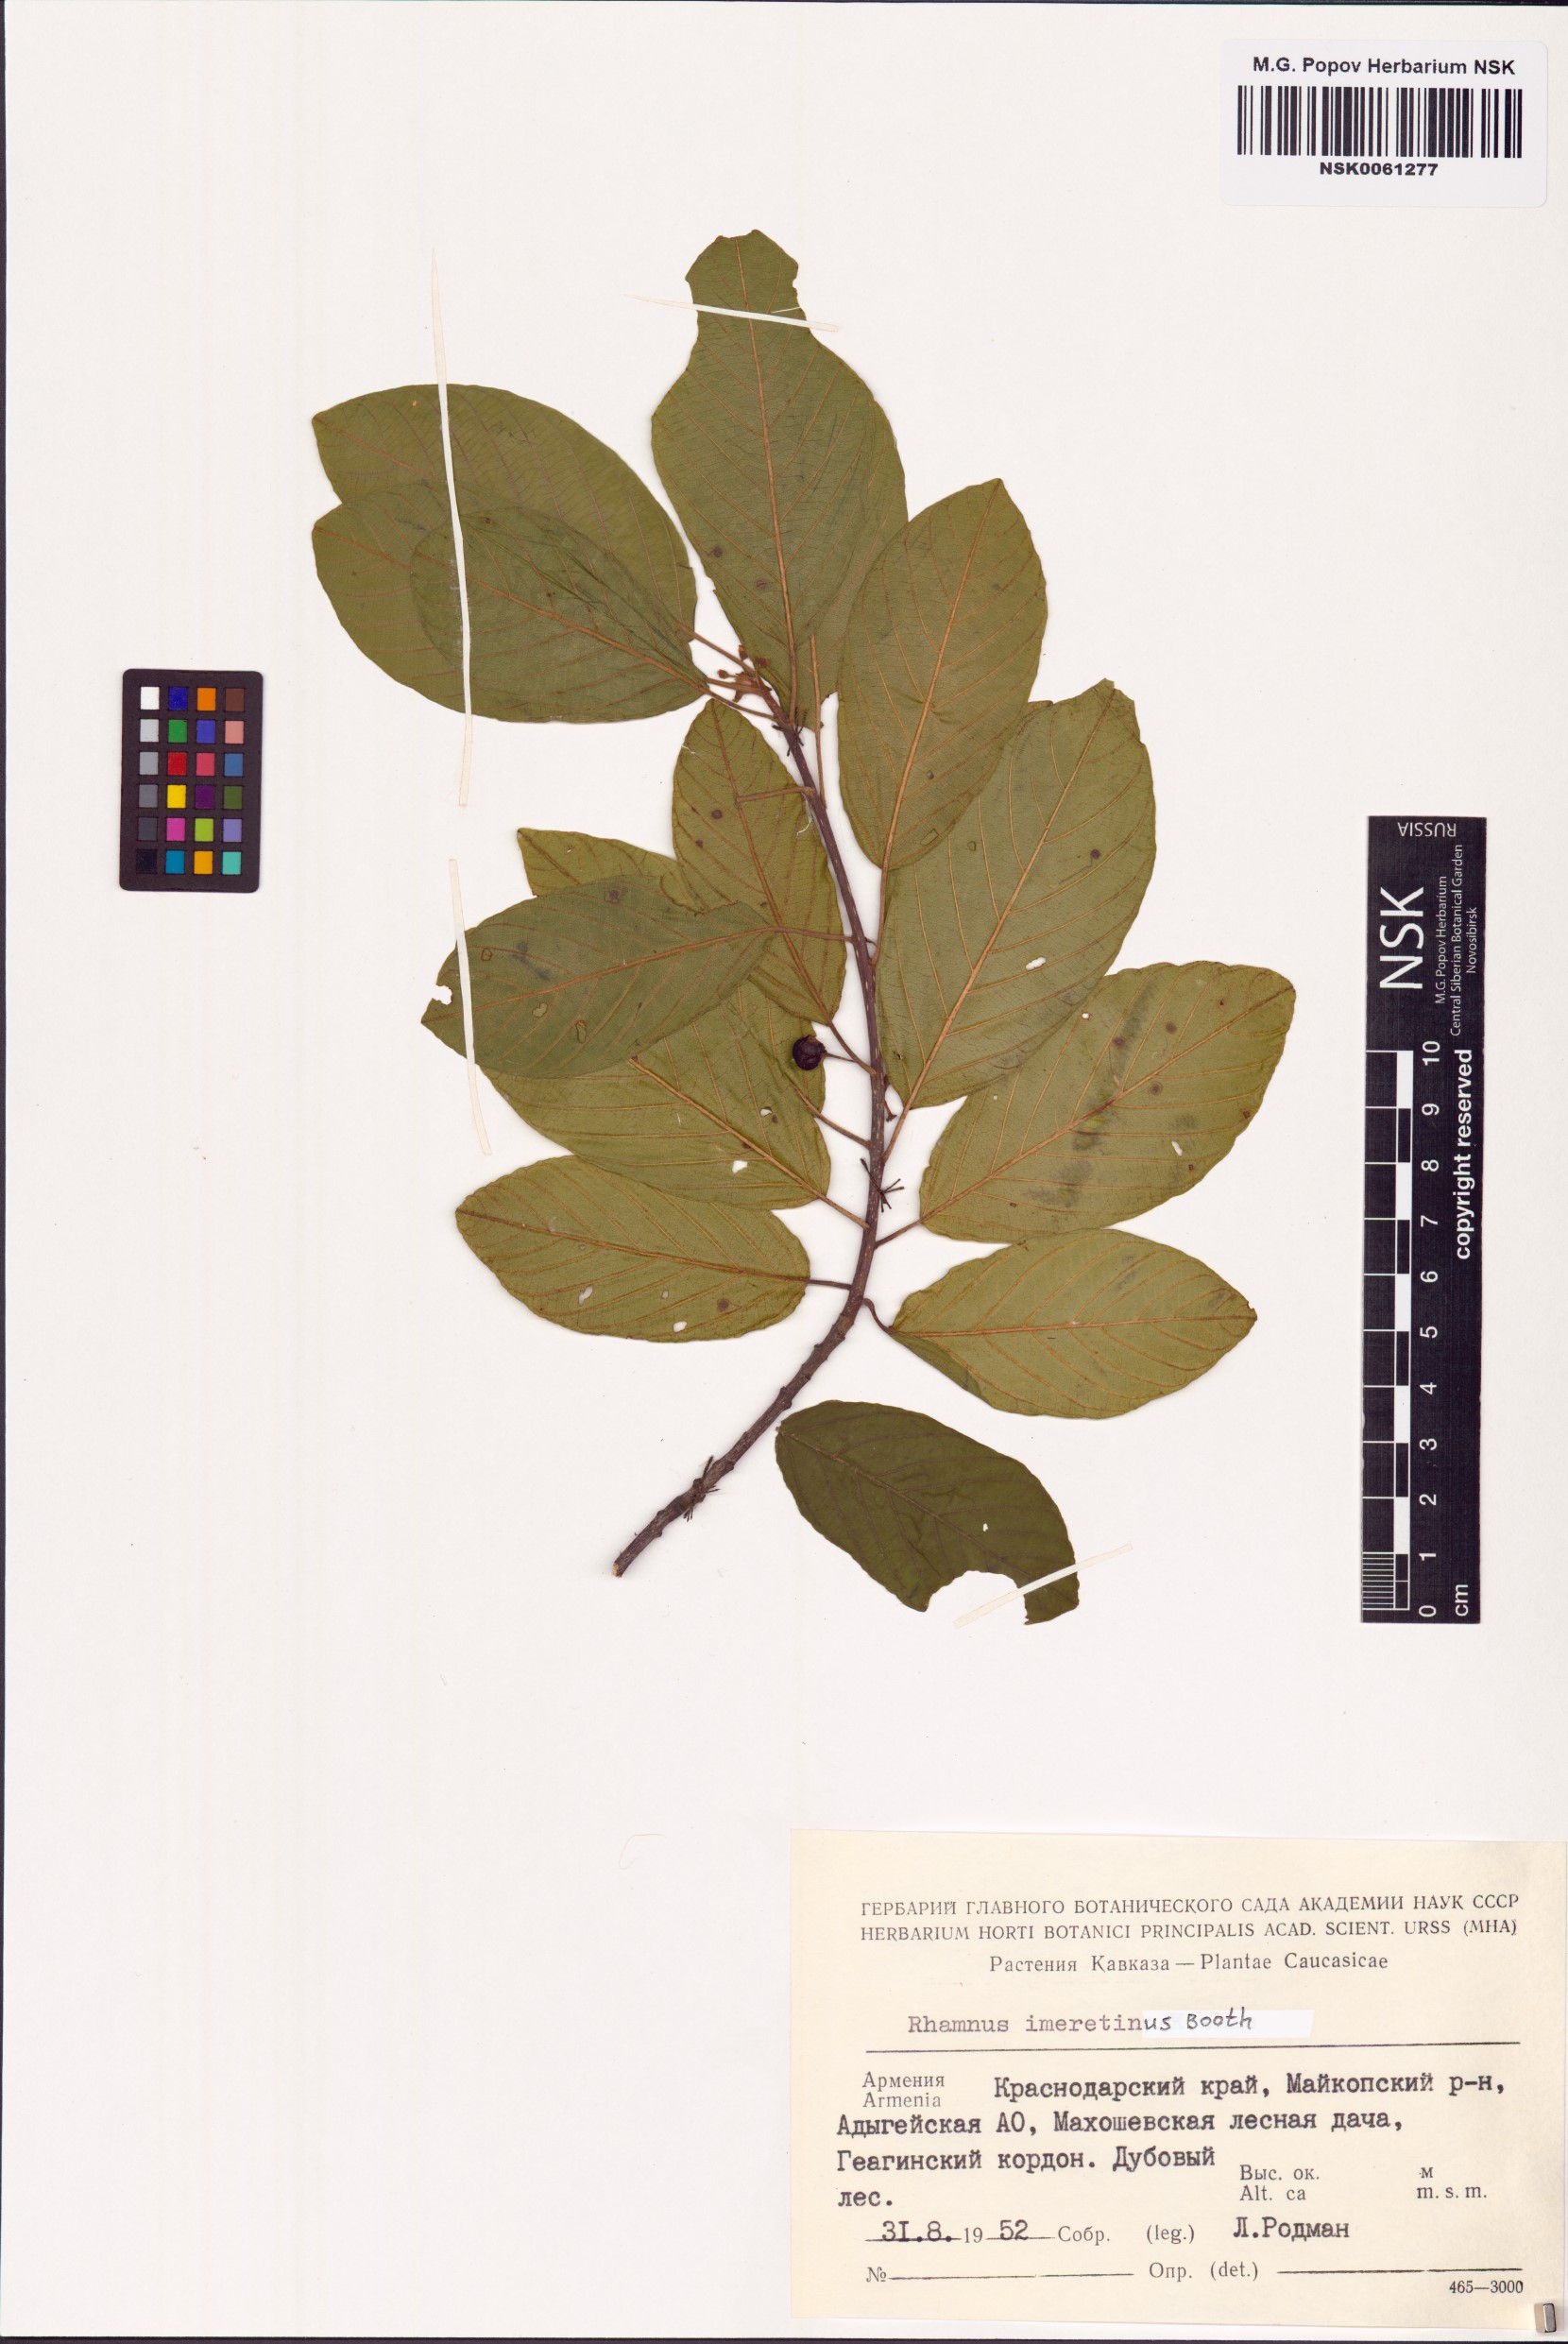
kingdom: Plantae
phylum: Tracheophyta
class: Magnoliopsida
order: Rosales
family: Rhamnaceae
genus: Atadinus
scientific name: Atadinus imeretinus
